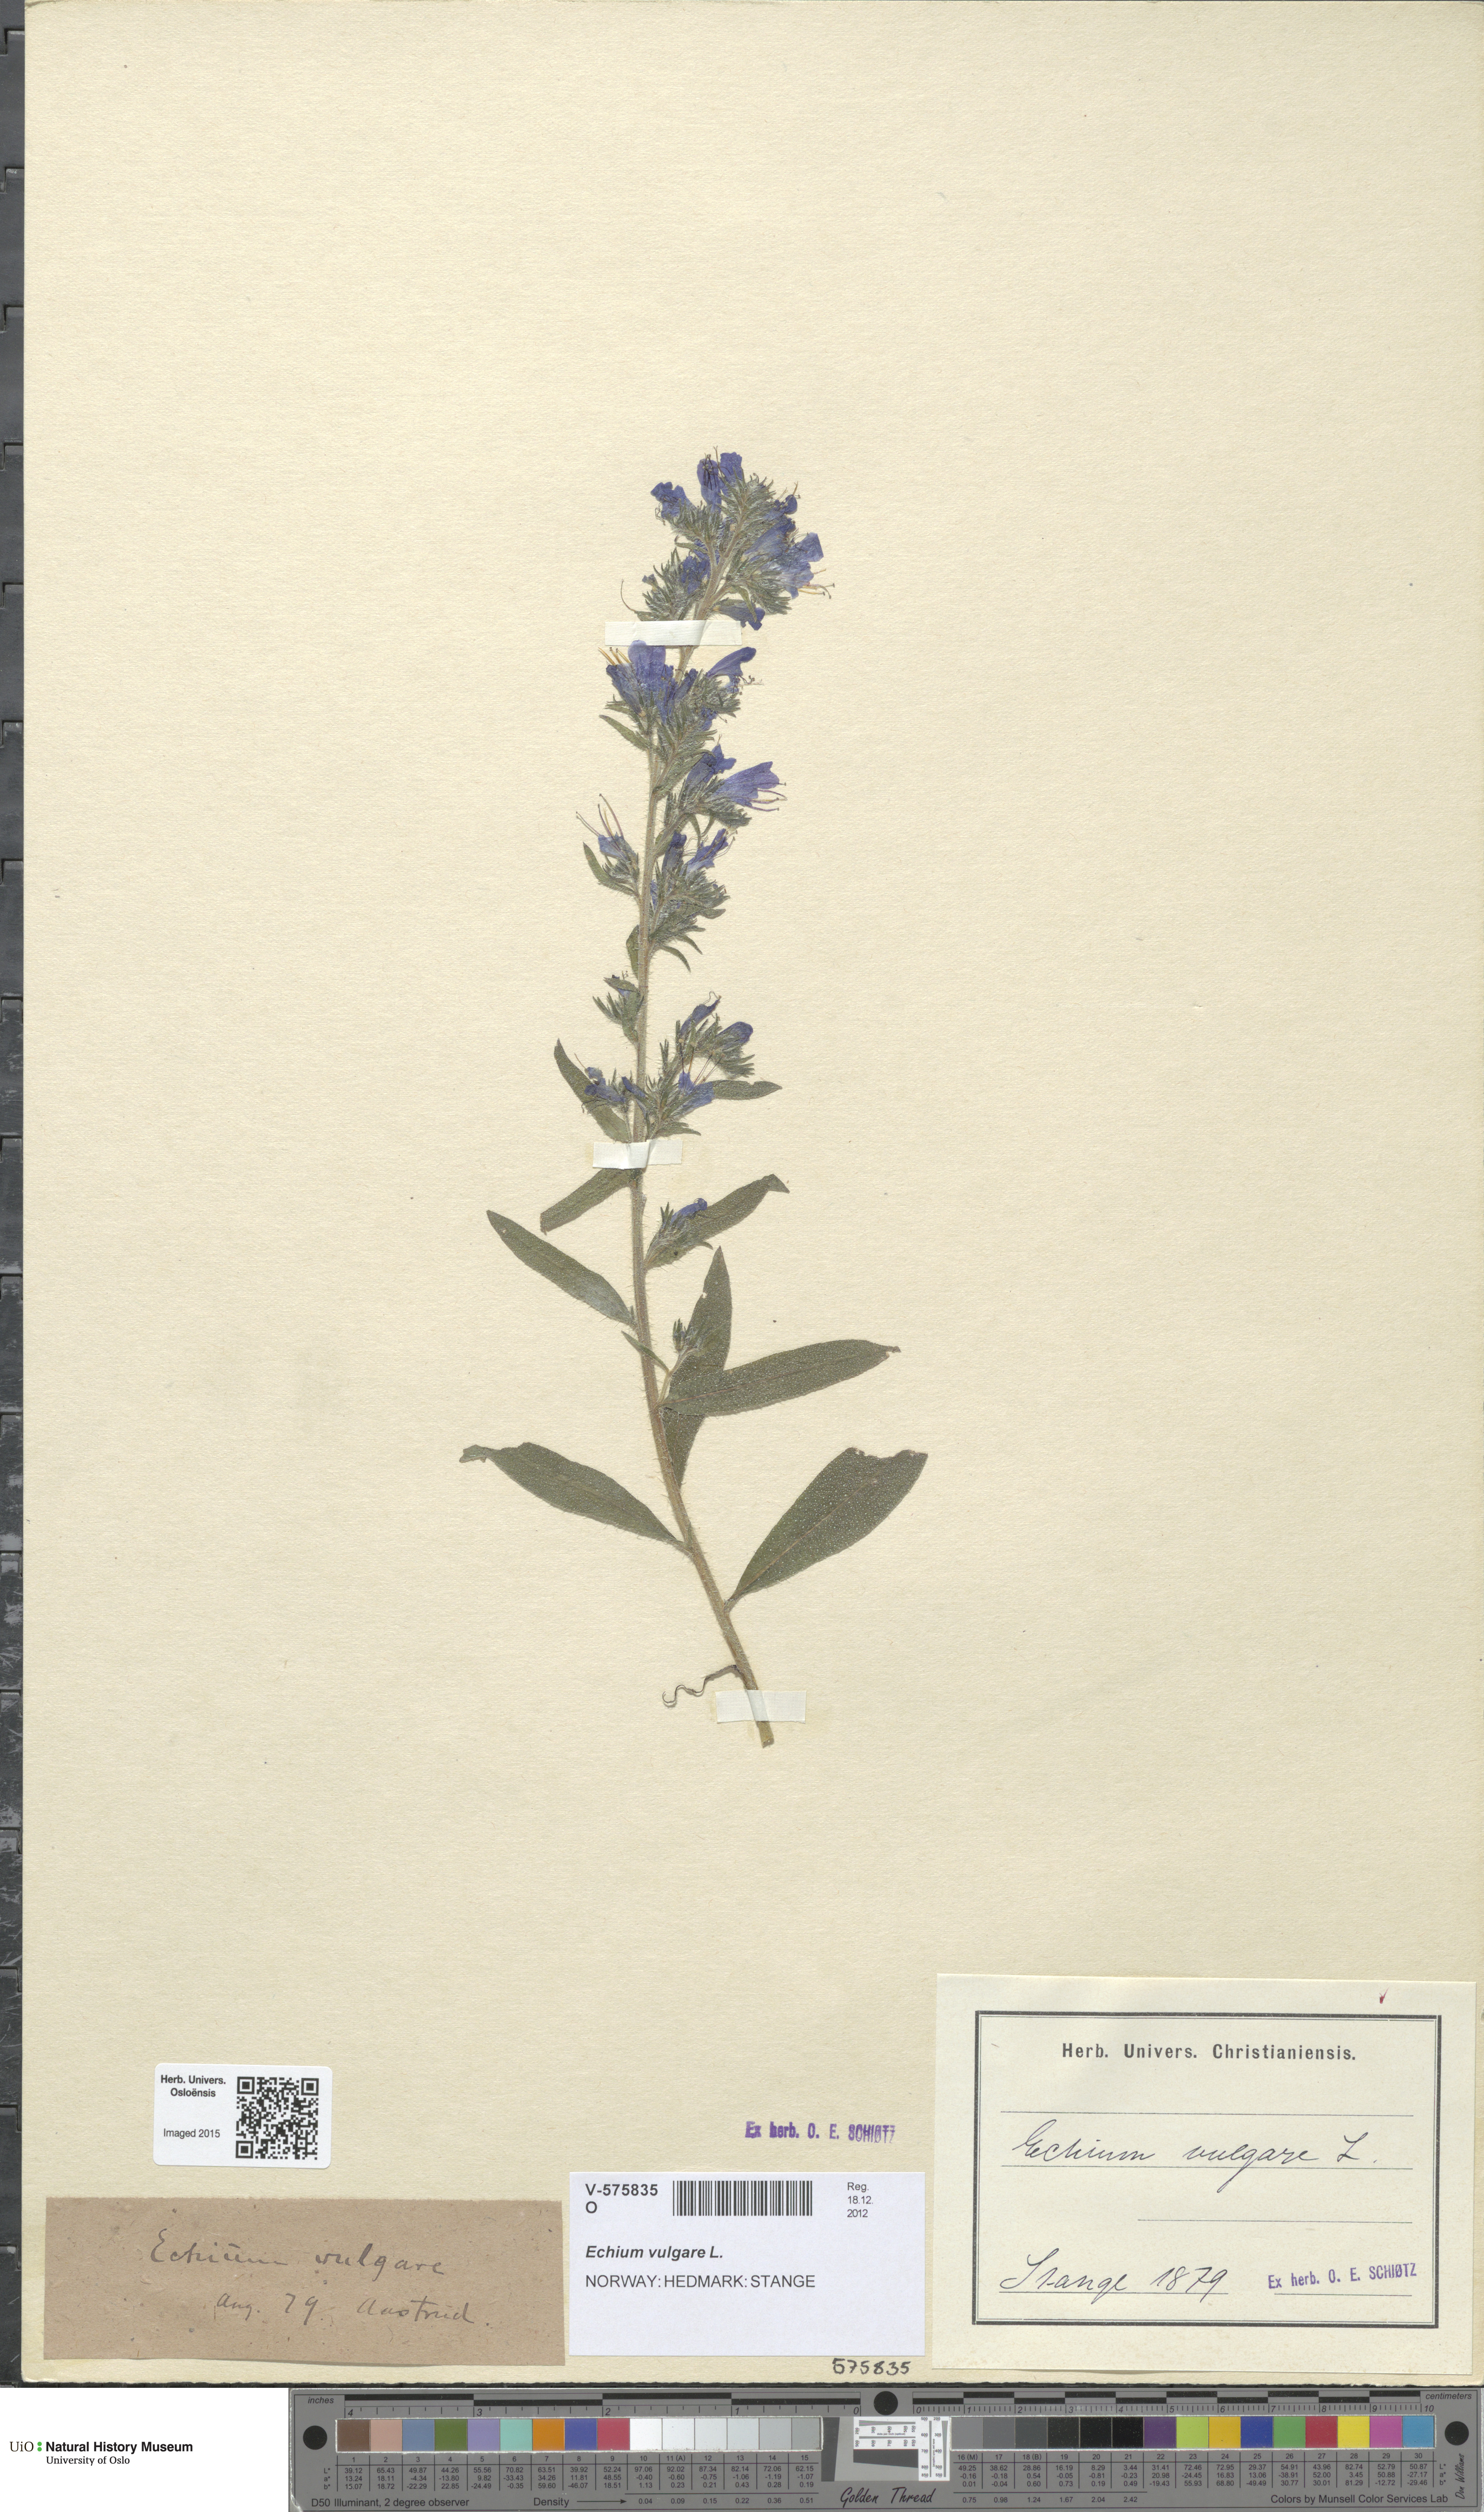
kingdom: Plantae
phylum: Tracheophyta
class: Magnoliopsida
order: Boraginales
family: Boraginaceae
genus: Echium
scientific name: Echium vulgare
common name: Common viper's bugloss
